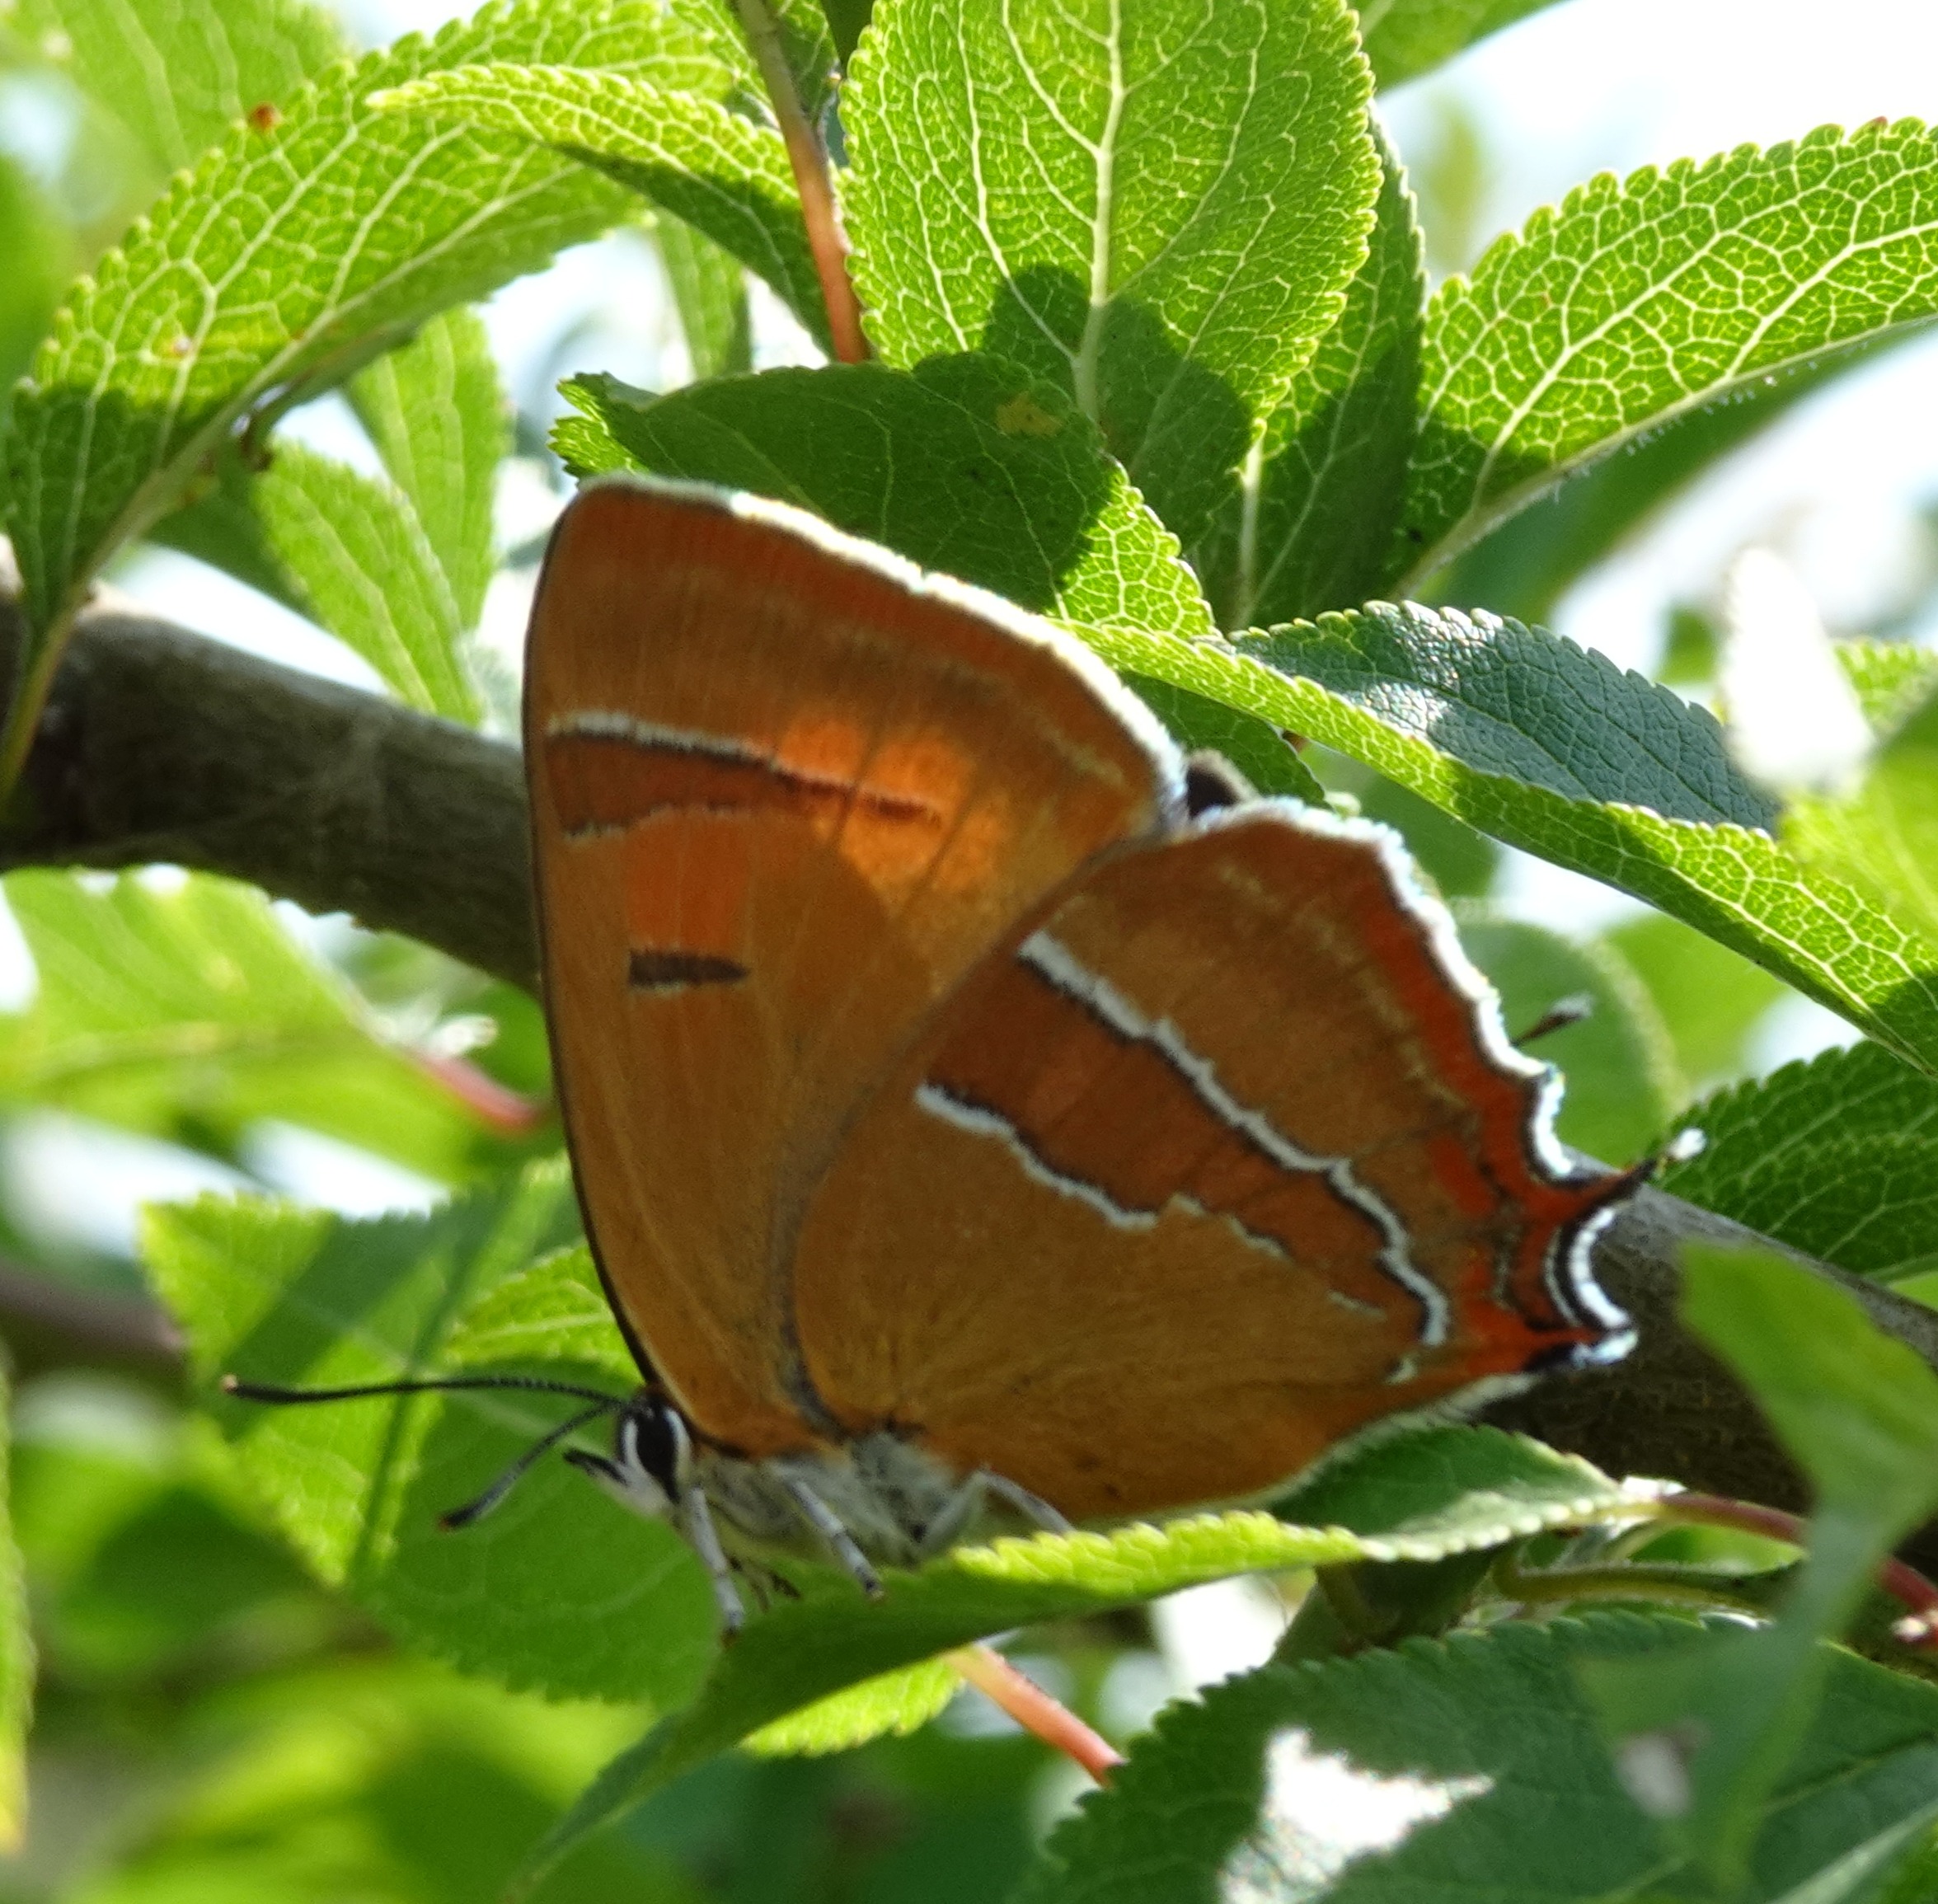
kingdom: Animalia
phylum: Arthropoda
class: Insecta
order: Lepidoptera
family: Lycaenidae
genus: Thecla
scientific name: Thecla betulae
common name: Guldhale
